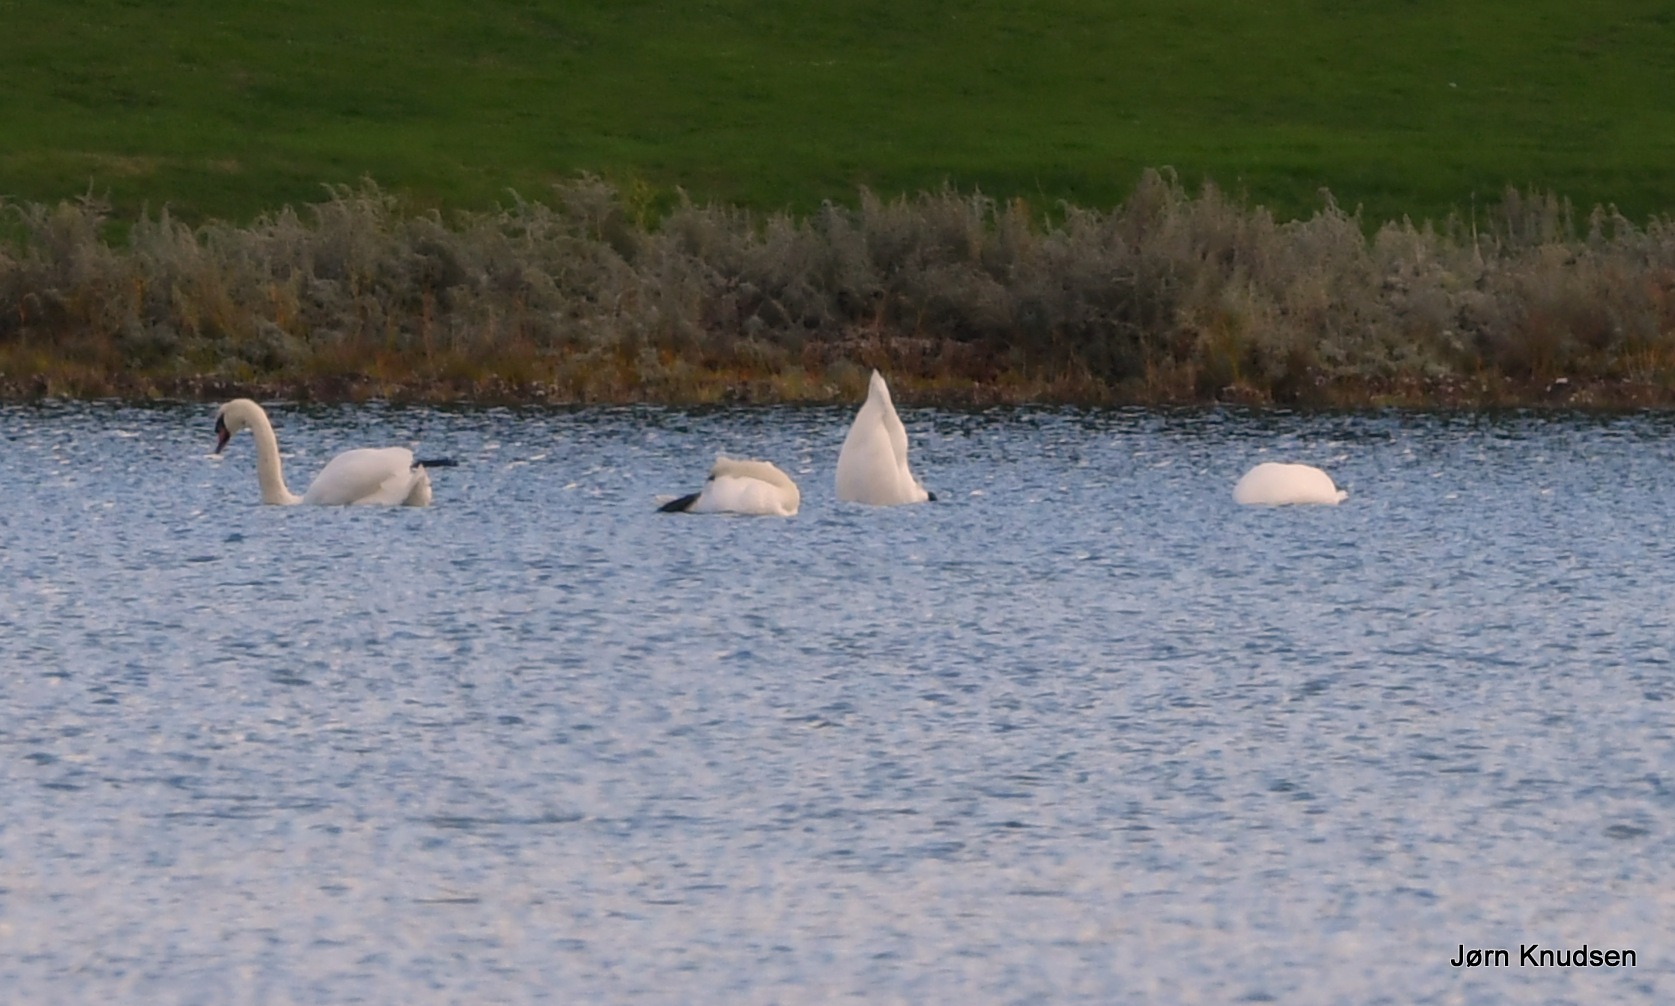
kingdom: Animalia
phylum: Chordata
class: Aves
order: Anseriformes
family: Anatidae
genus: Cygnus
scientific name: Cygnus olor
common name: Knopsvane
